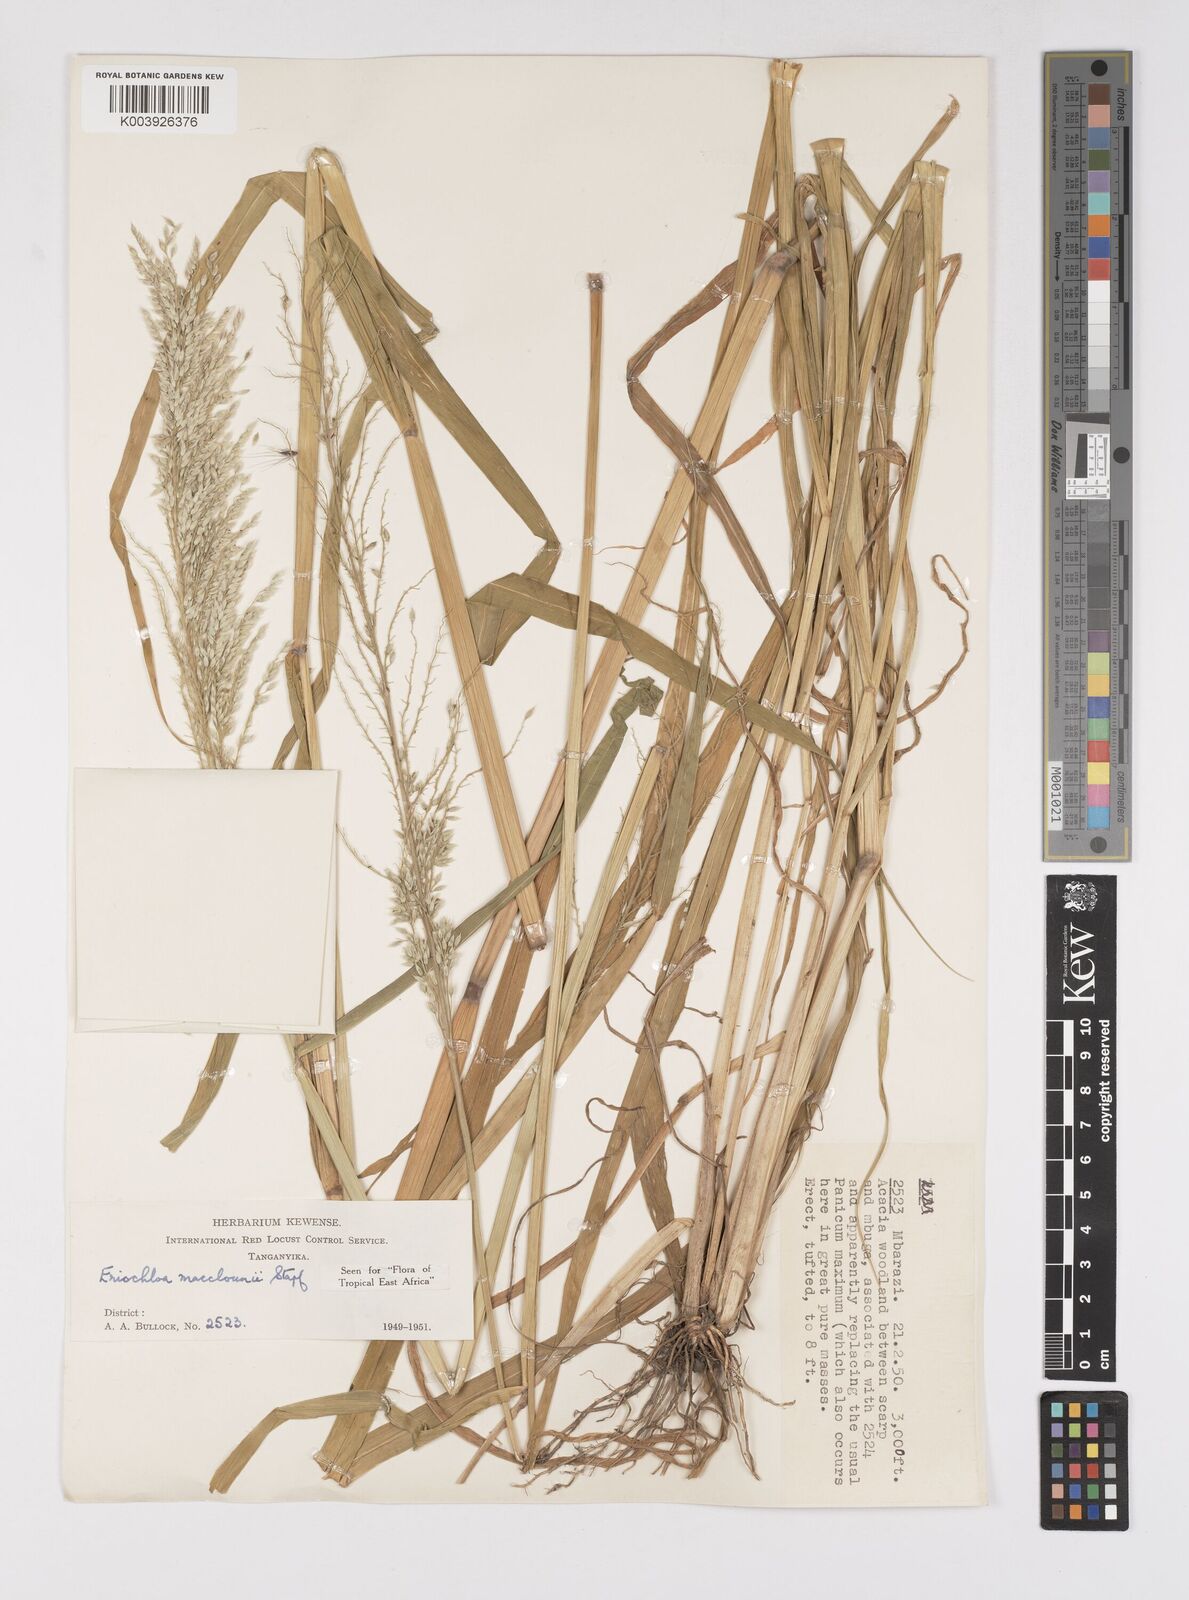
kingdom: Plantae
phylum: Tracheophyta
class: Liliopsida
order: Poales
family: Poaceae
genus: Eriochloa
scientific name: Eriochloa macclounii
